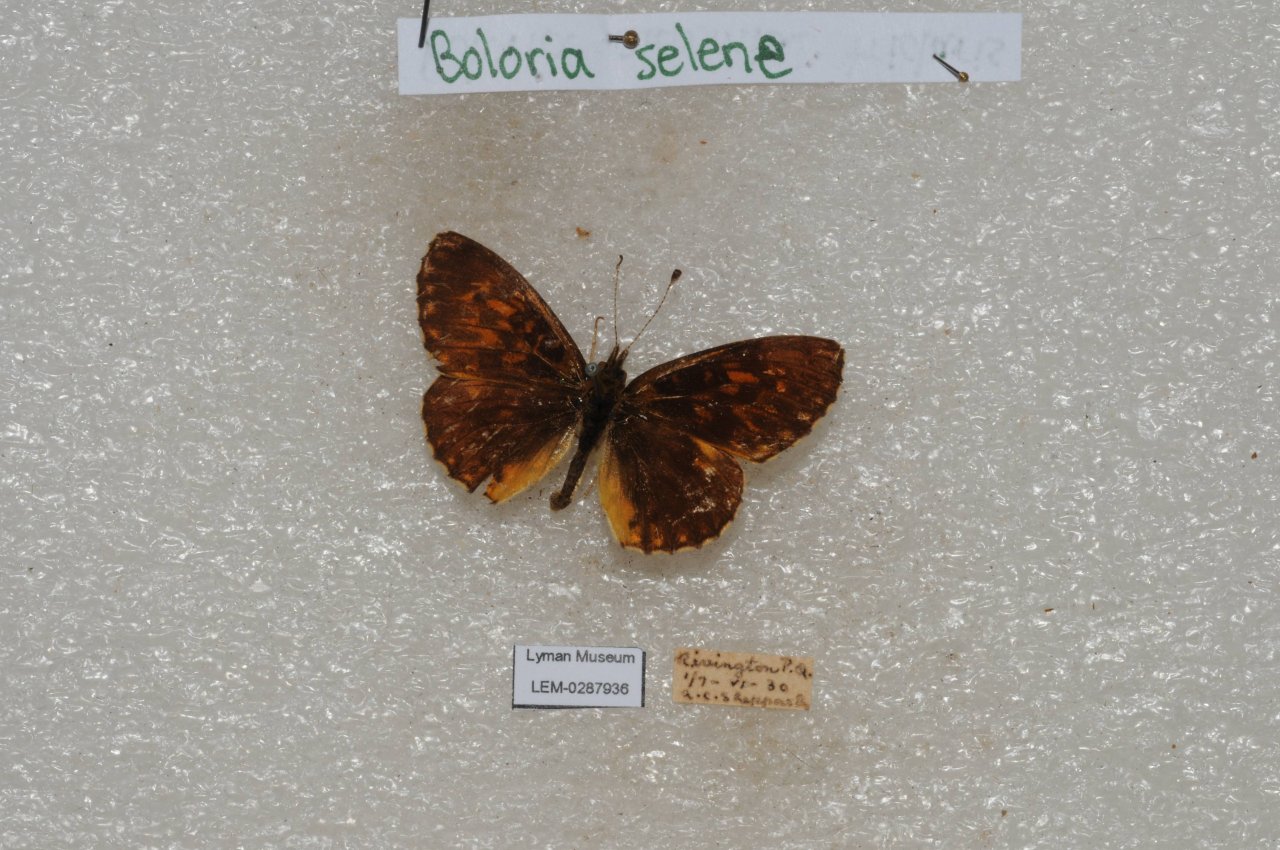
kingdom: Animalia
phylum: Arthropoda
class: Insecta
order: Lepidoptera
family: Nymphalidae
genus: Boloria
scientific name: Boloria selene
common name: Silver-bordered Fritillary
